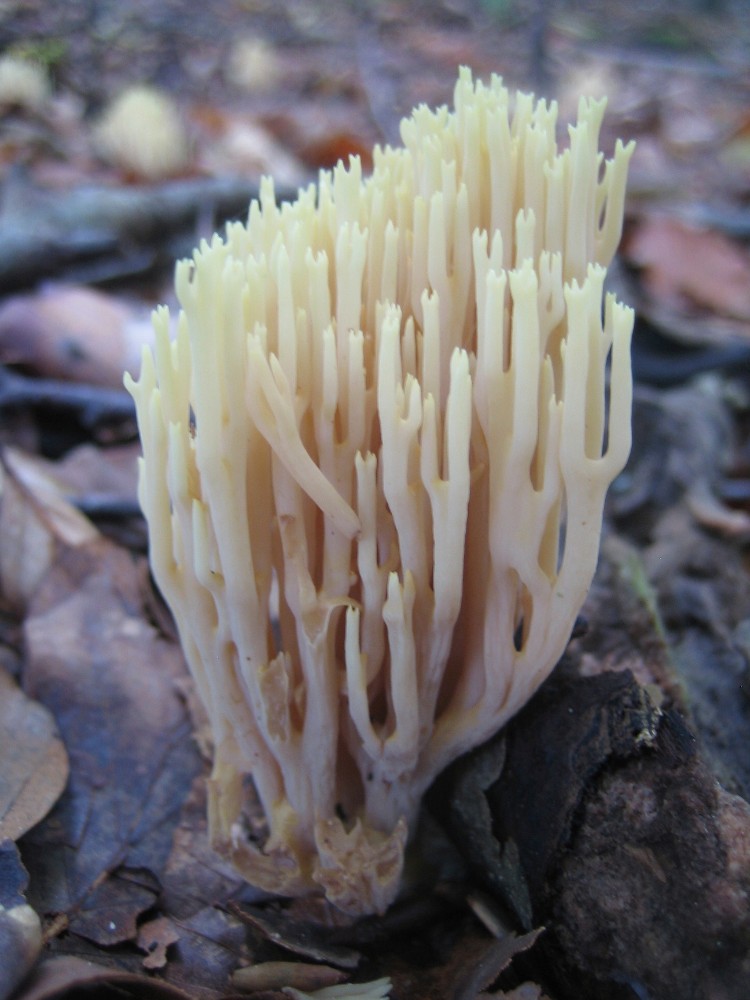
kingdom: Fungi
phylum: Basidiomycota
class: Agaricomycetes
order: Gomphales
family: Gomphaceae
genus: Ramaria
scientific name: Ramaria stricta
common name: rank koralsvamp
